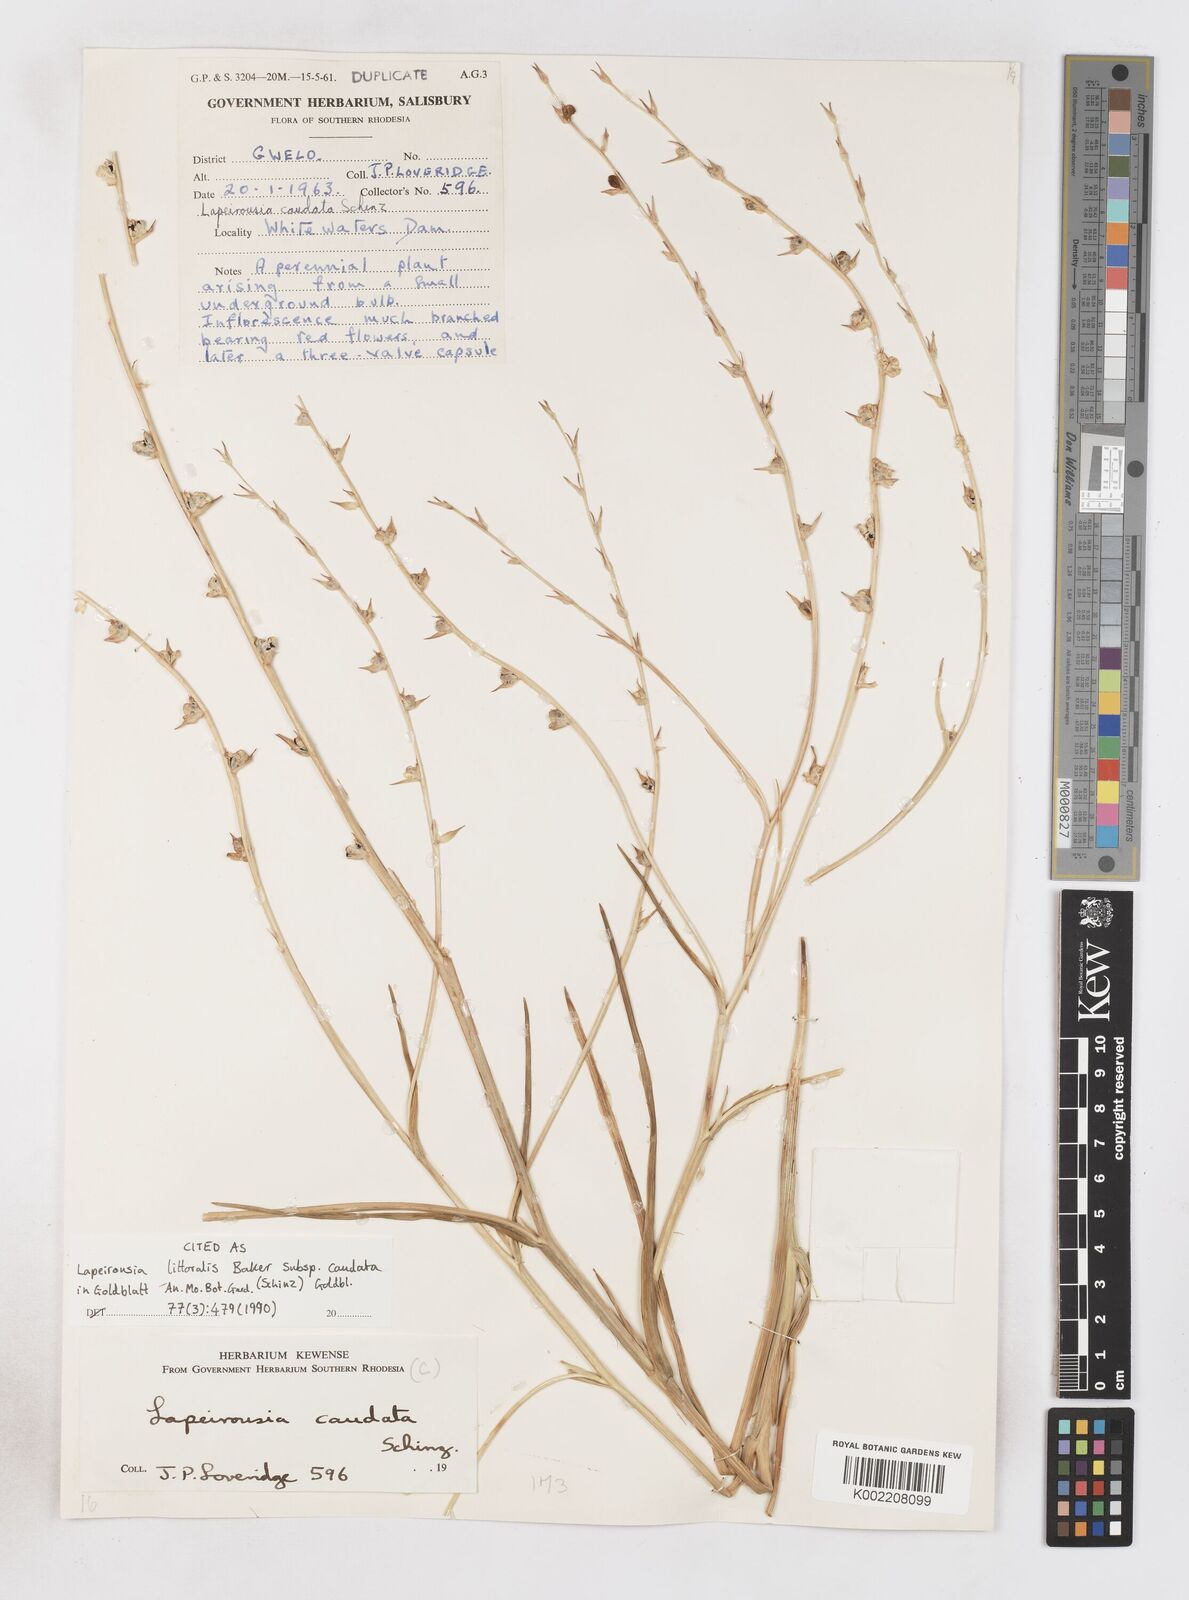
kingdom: Plantae
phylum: Tracheophyta
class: Liliopsida
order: Asparagales
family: Iridaceae
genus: Lapeirousia
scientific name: Lapeirousia caudata
